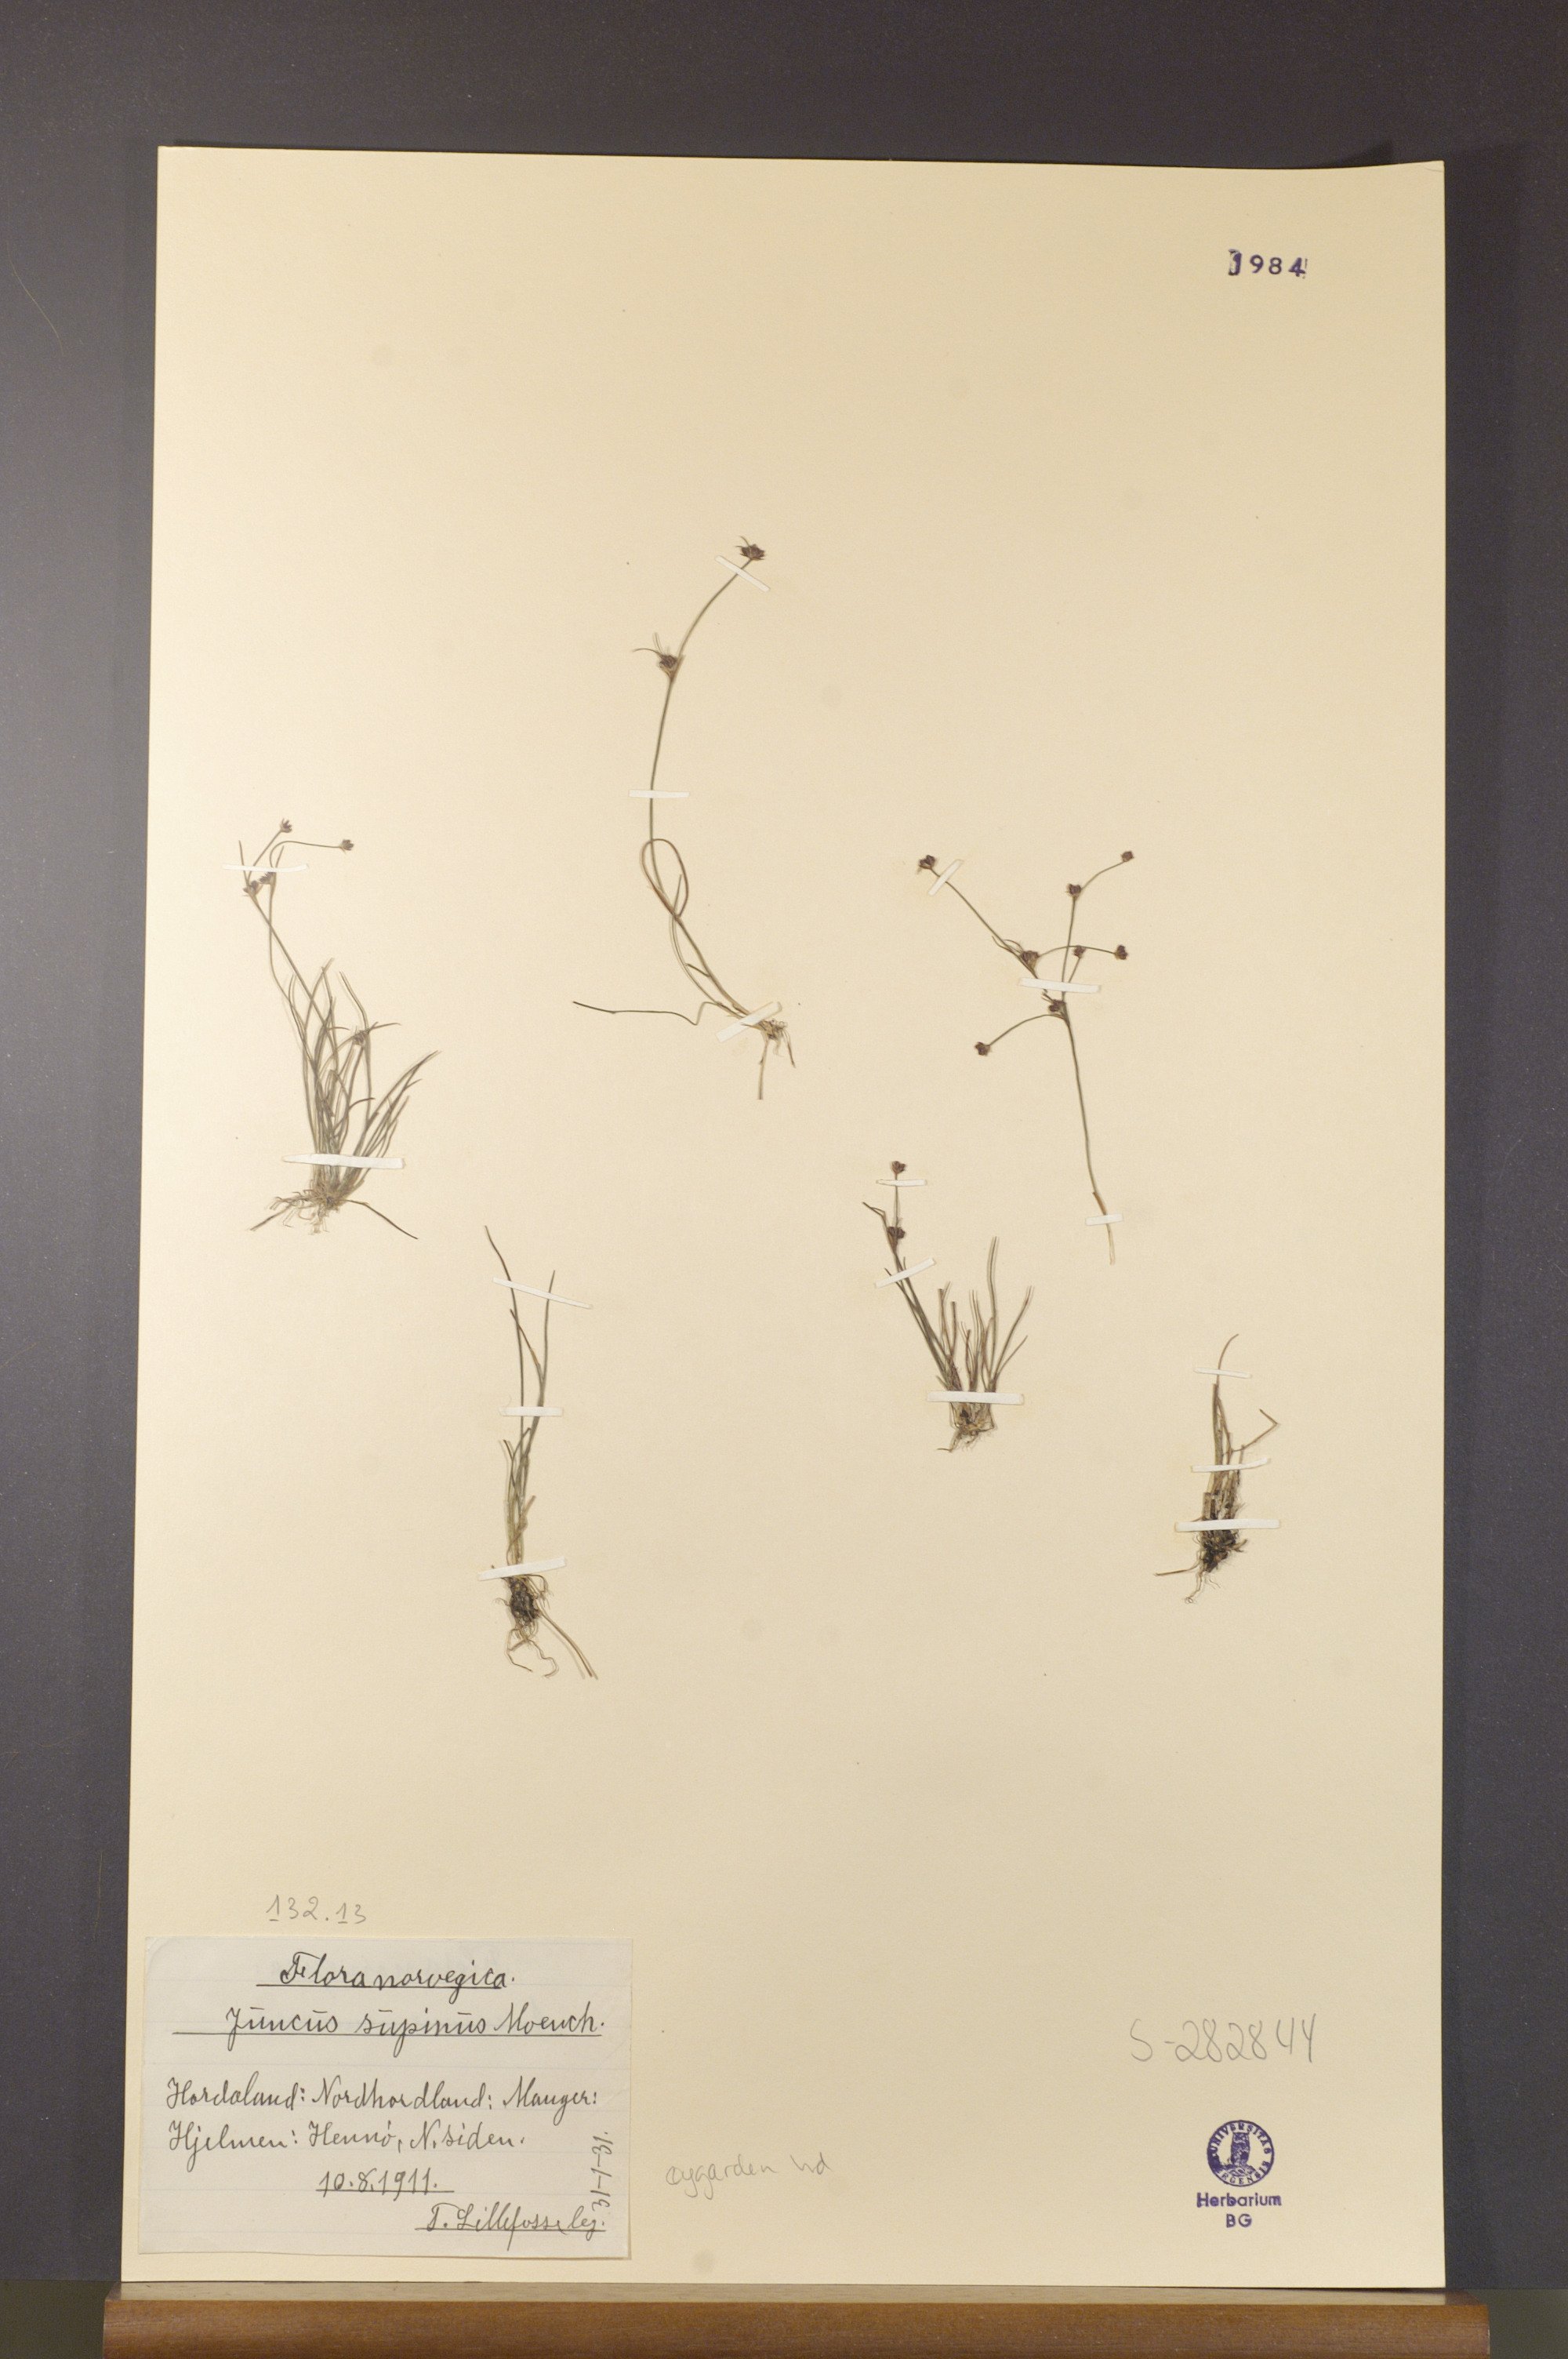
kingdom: Plantae
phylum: Tracheophyta
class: Liliopsida
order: Poales
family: Juncaceae
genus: Juncus
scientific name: Juncus bulbosus
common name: Bulbous rush
